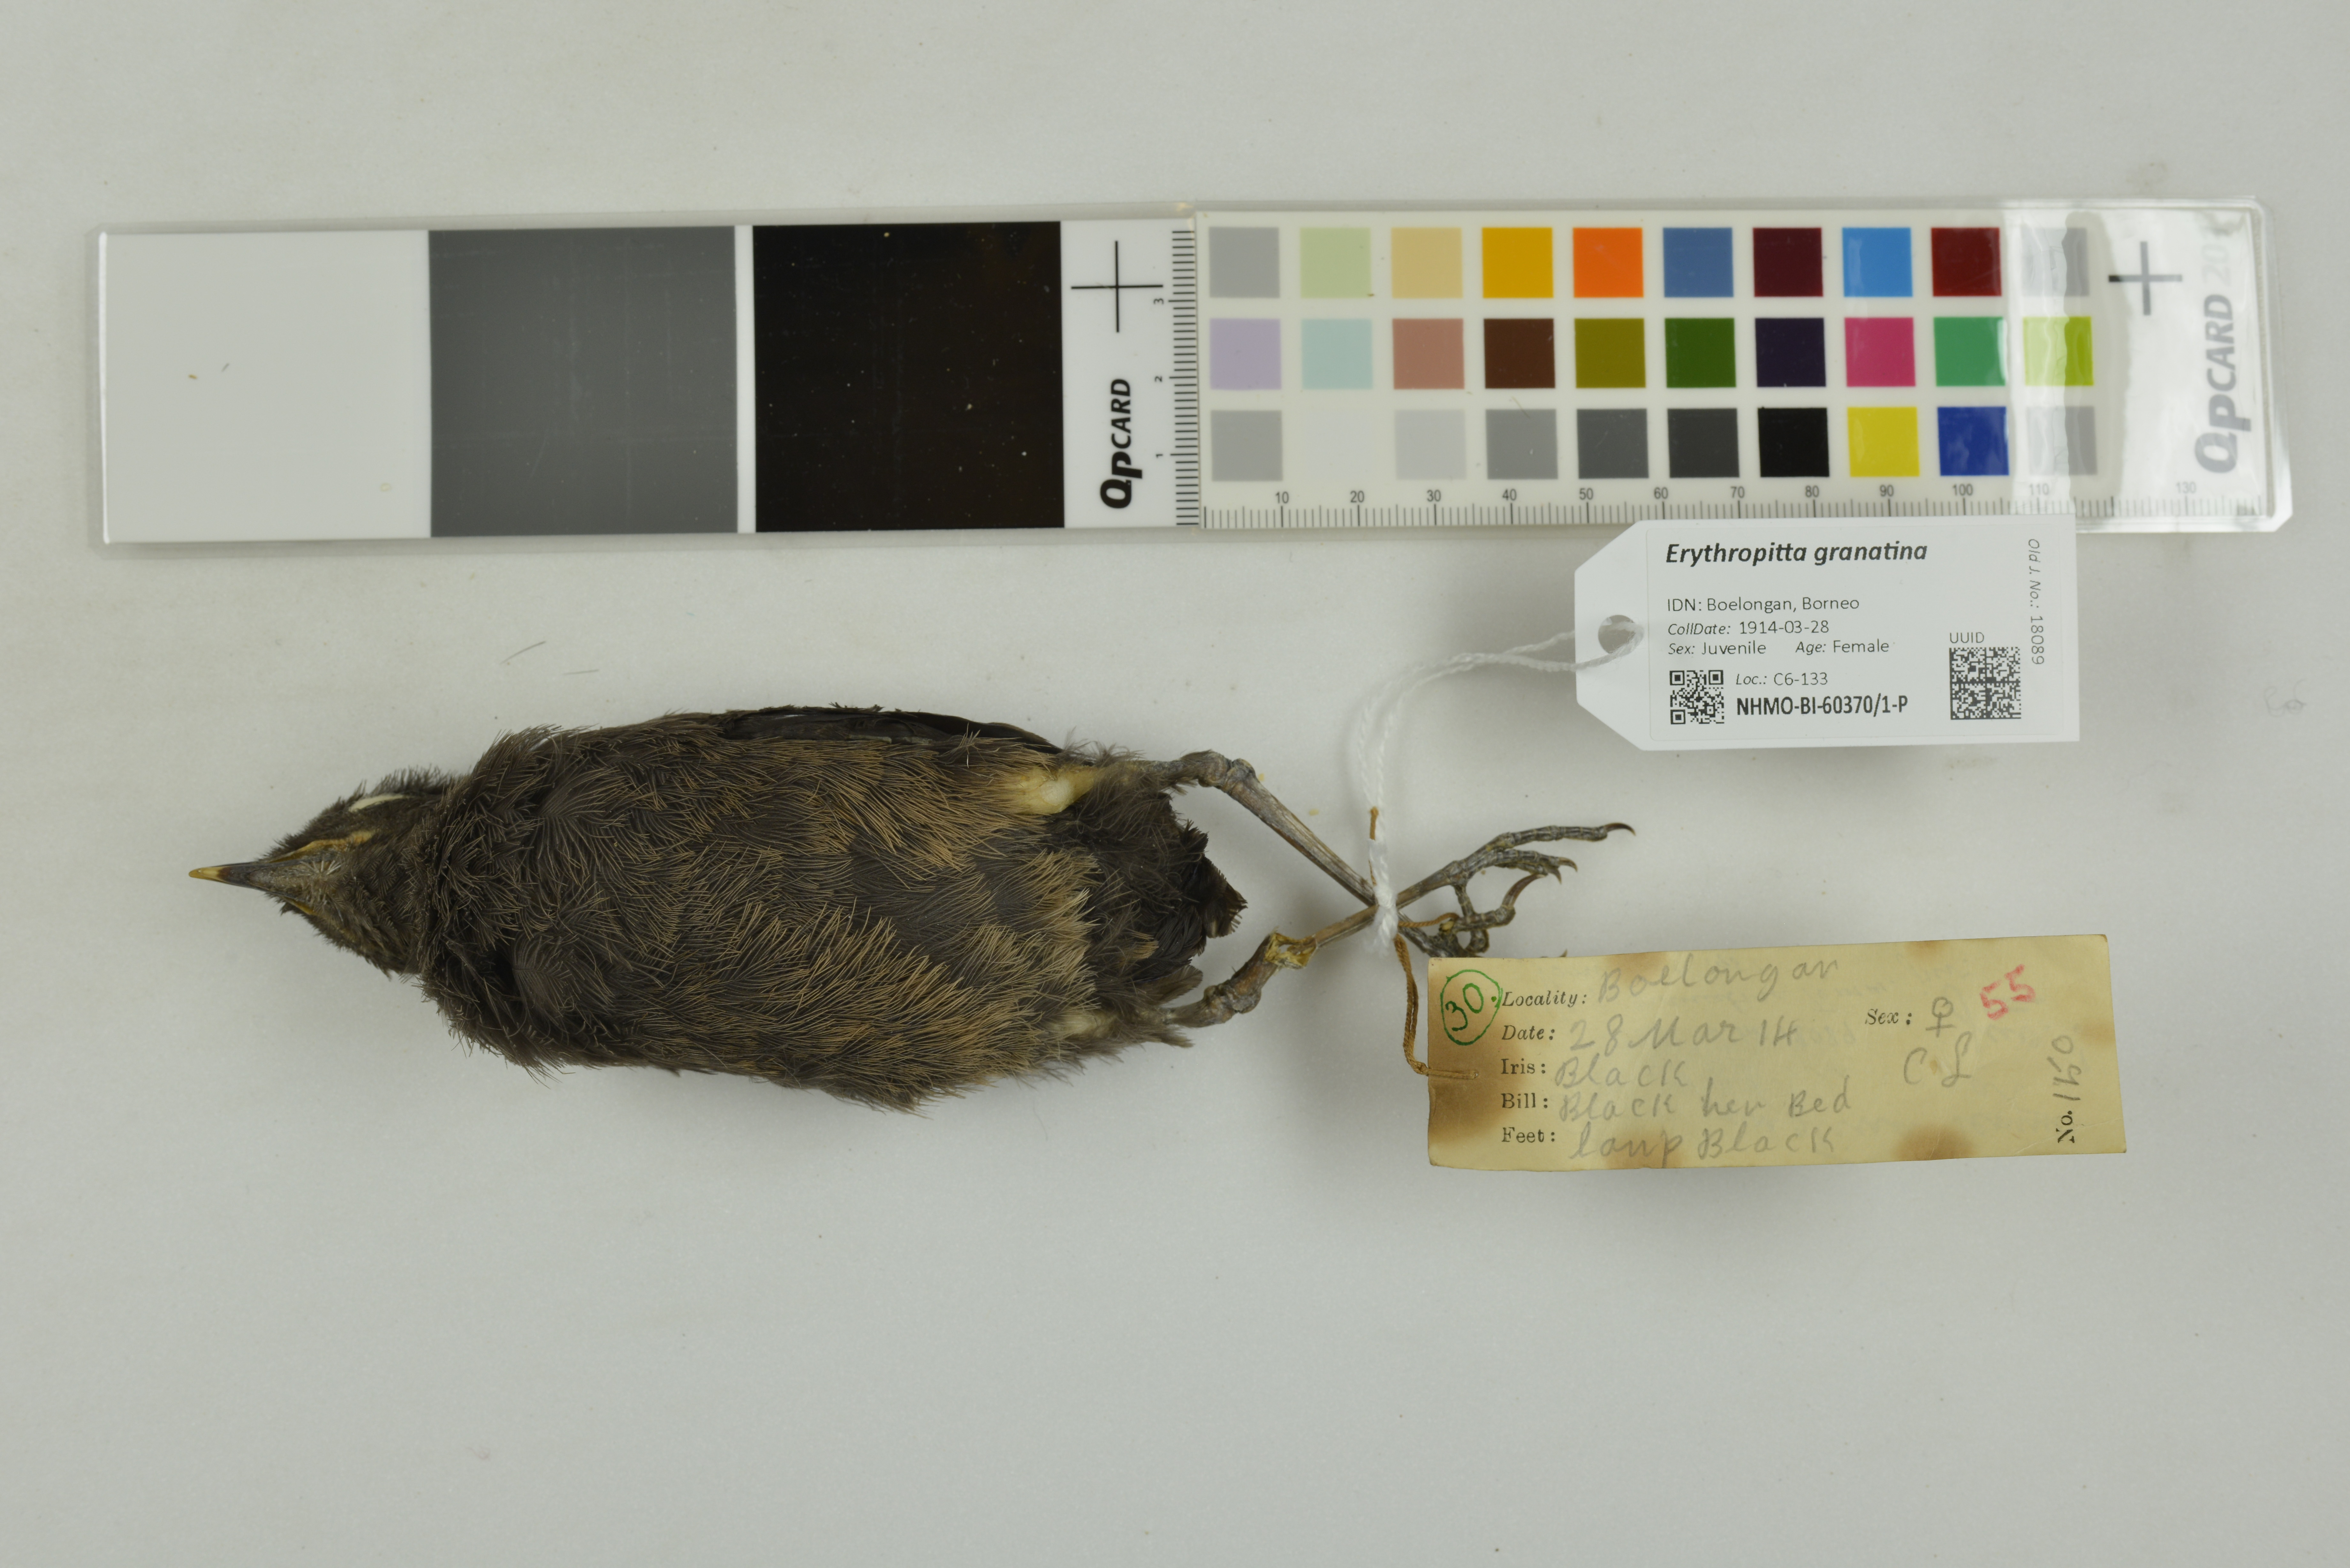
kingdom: Animalia
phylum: Chordata
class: Aves
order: Passeriformes
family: Pittidae
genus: Pitta
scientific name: Pitta granatina
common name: Garnet pitta
